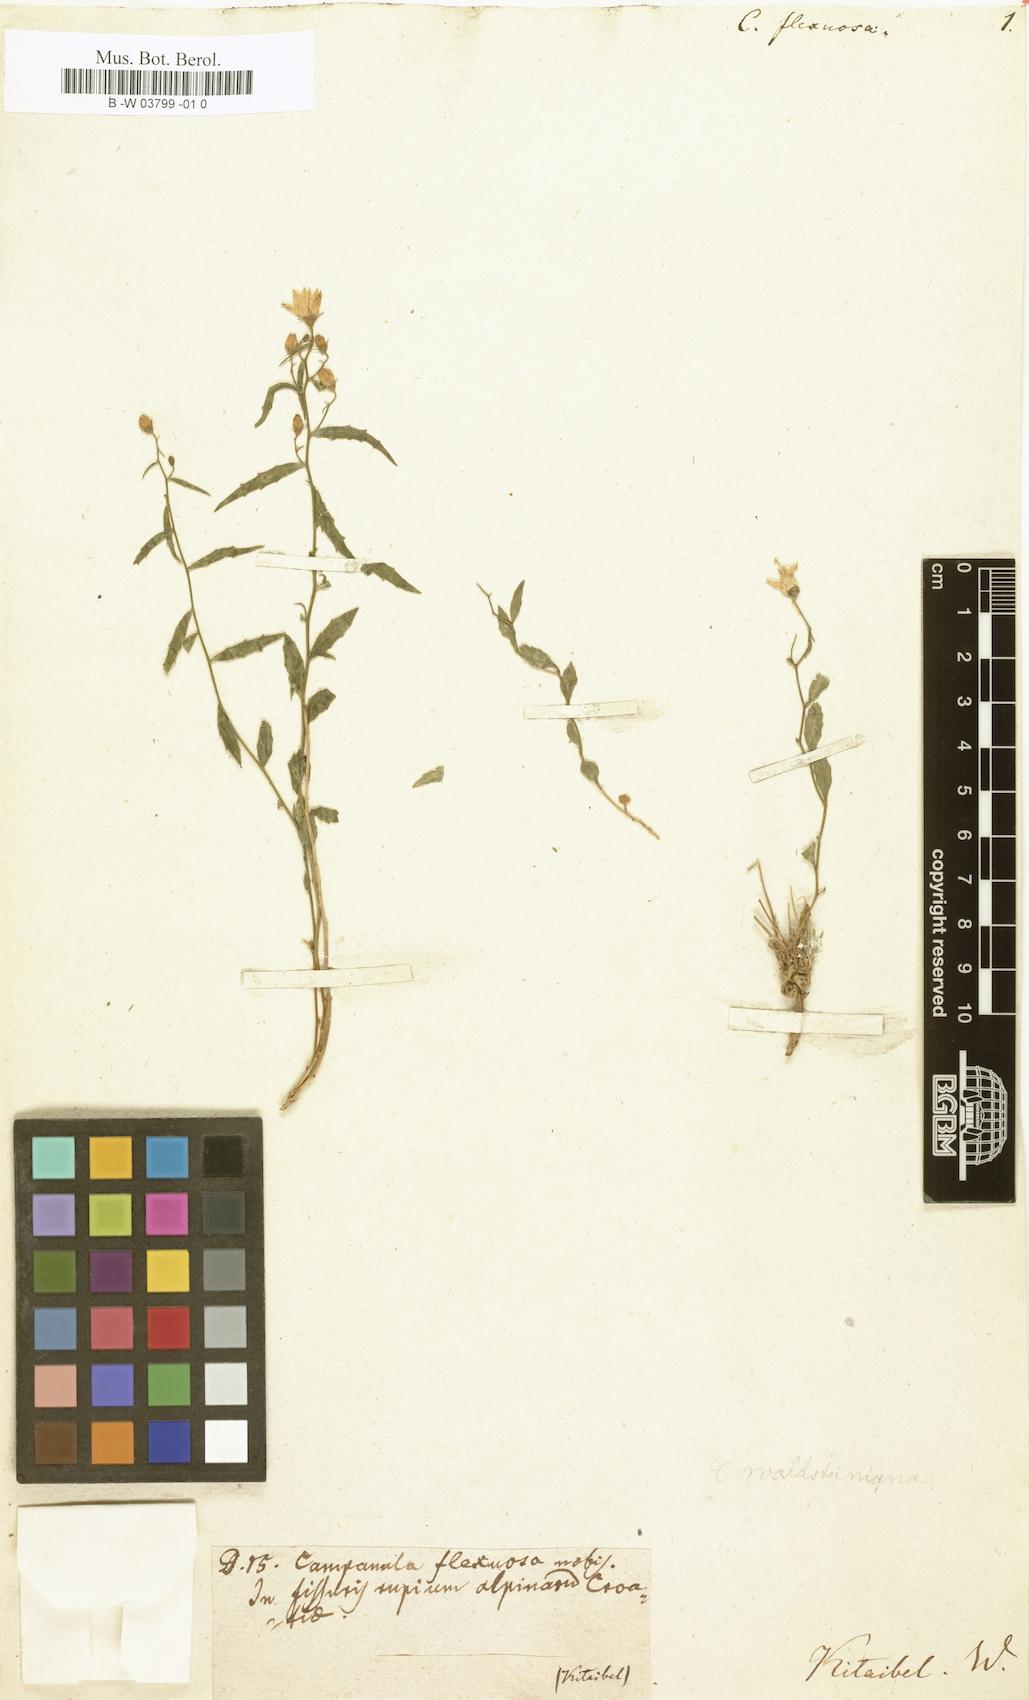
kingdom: Plantae
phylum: Tracheophyta
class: Magnoliopsida
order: Asterales
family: Campanulaceae
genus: Campanula
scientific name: Campanula
